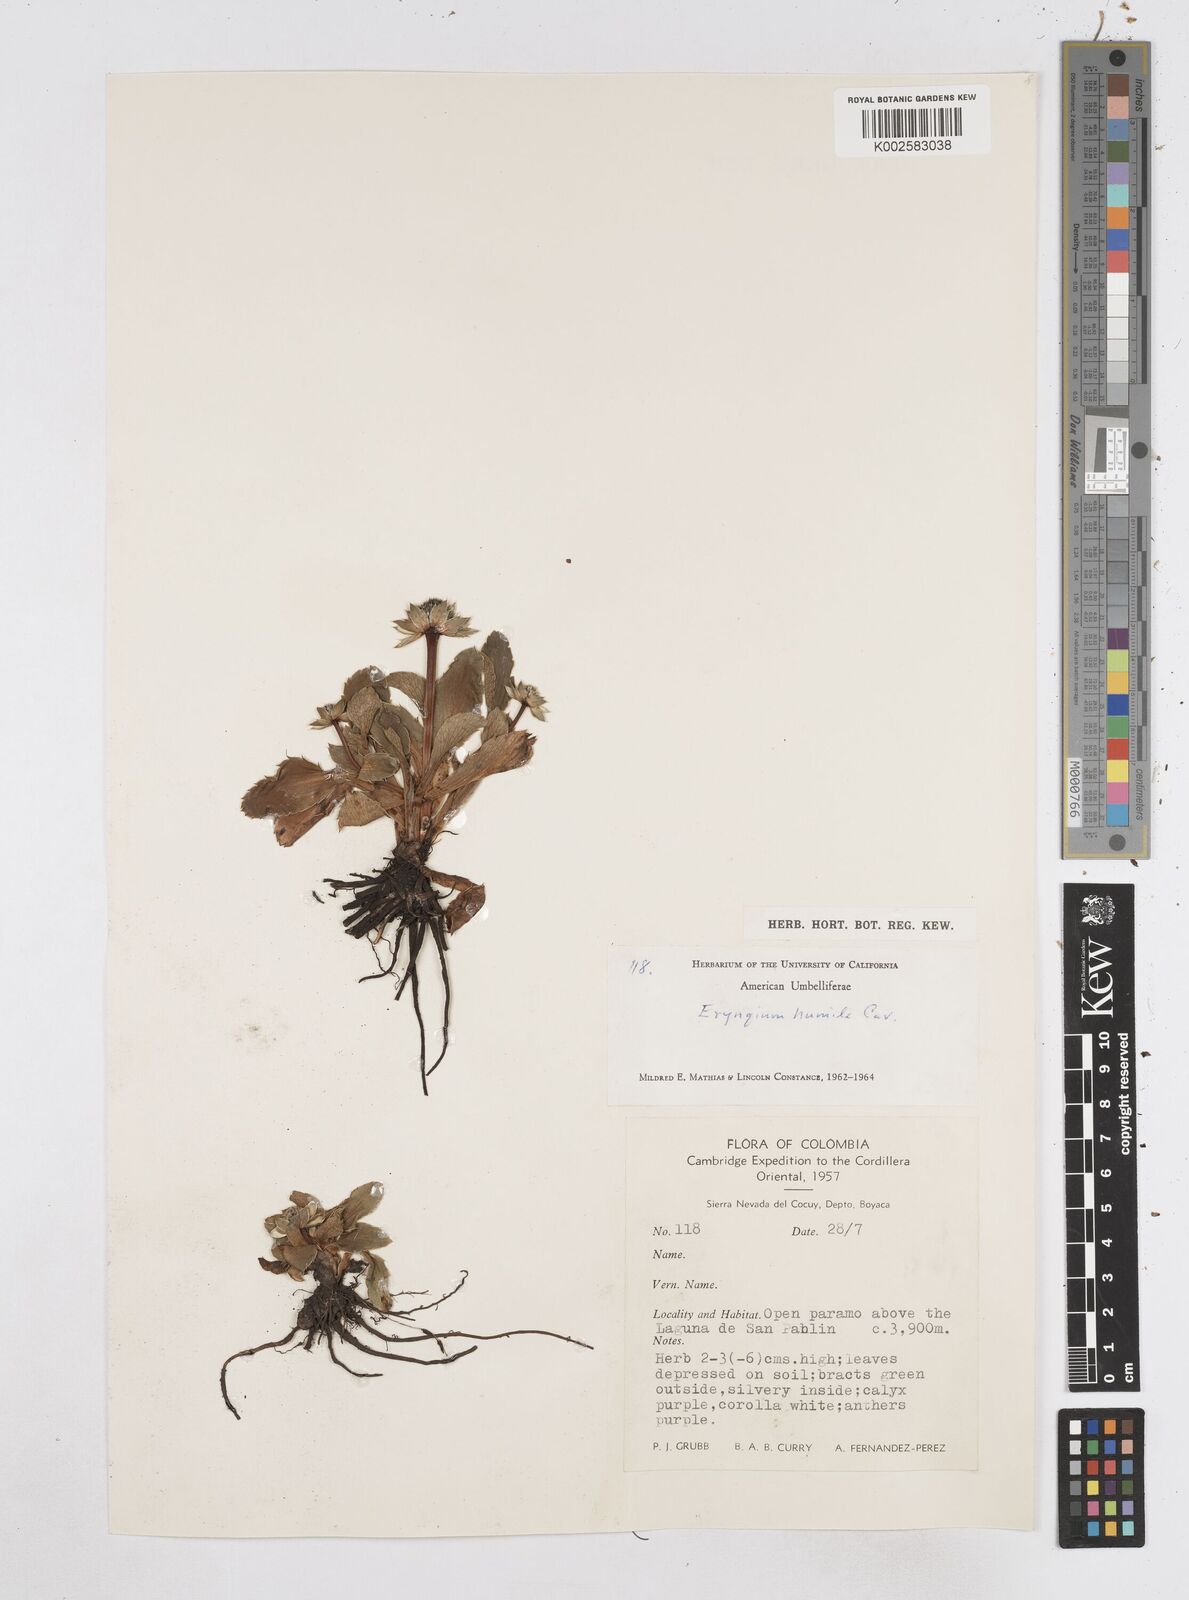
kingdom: Plantae
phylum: Tracheophyta
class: Magnoliopsida
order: Apiales
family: Apiaceae
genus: Eryngium
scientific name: Eryngium humile
